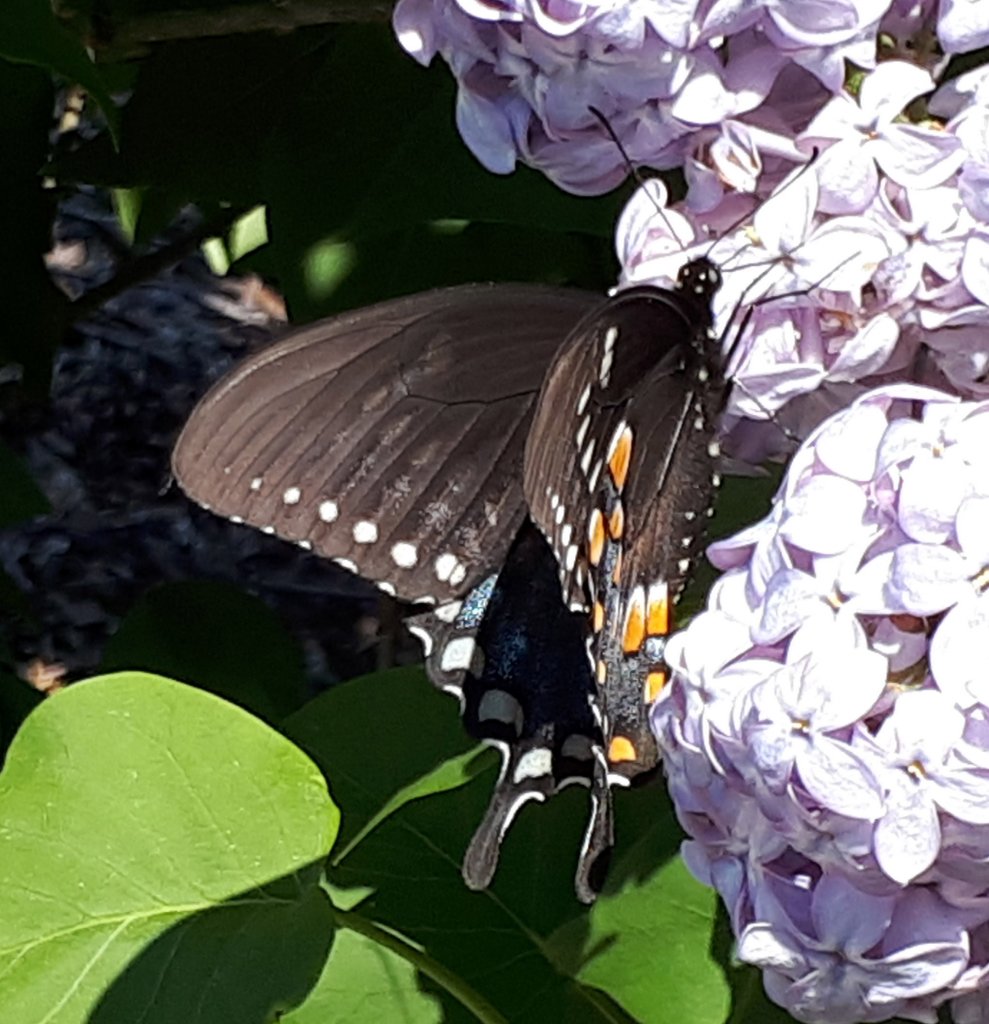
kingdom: Animalia
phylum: Arthropoda
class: Insecta
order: Lepidoptera
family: Papilionidae
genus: Pterourus
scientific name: Pterourus troilus
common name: Spicebush Swallowtail
